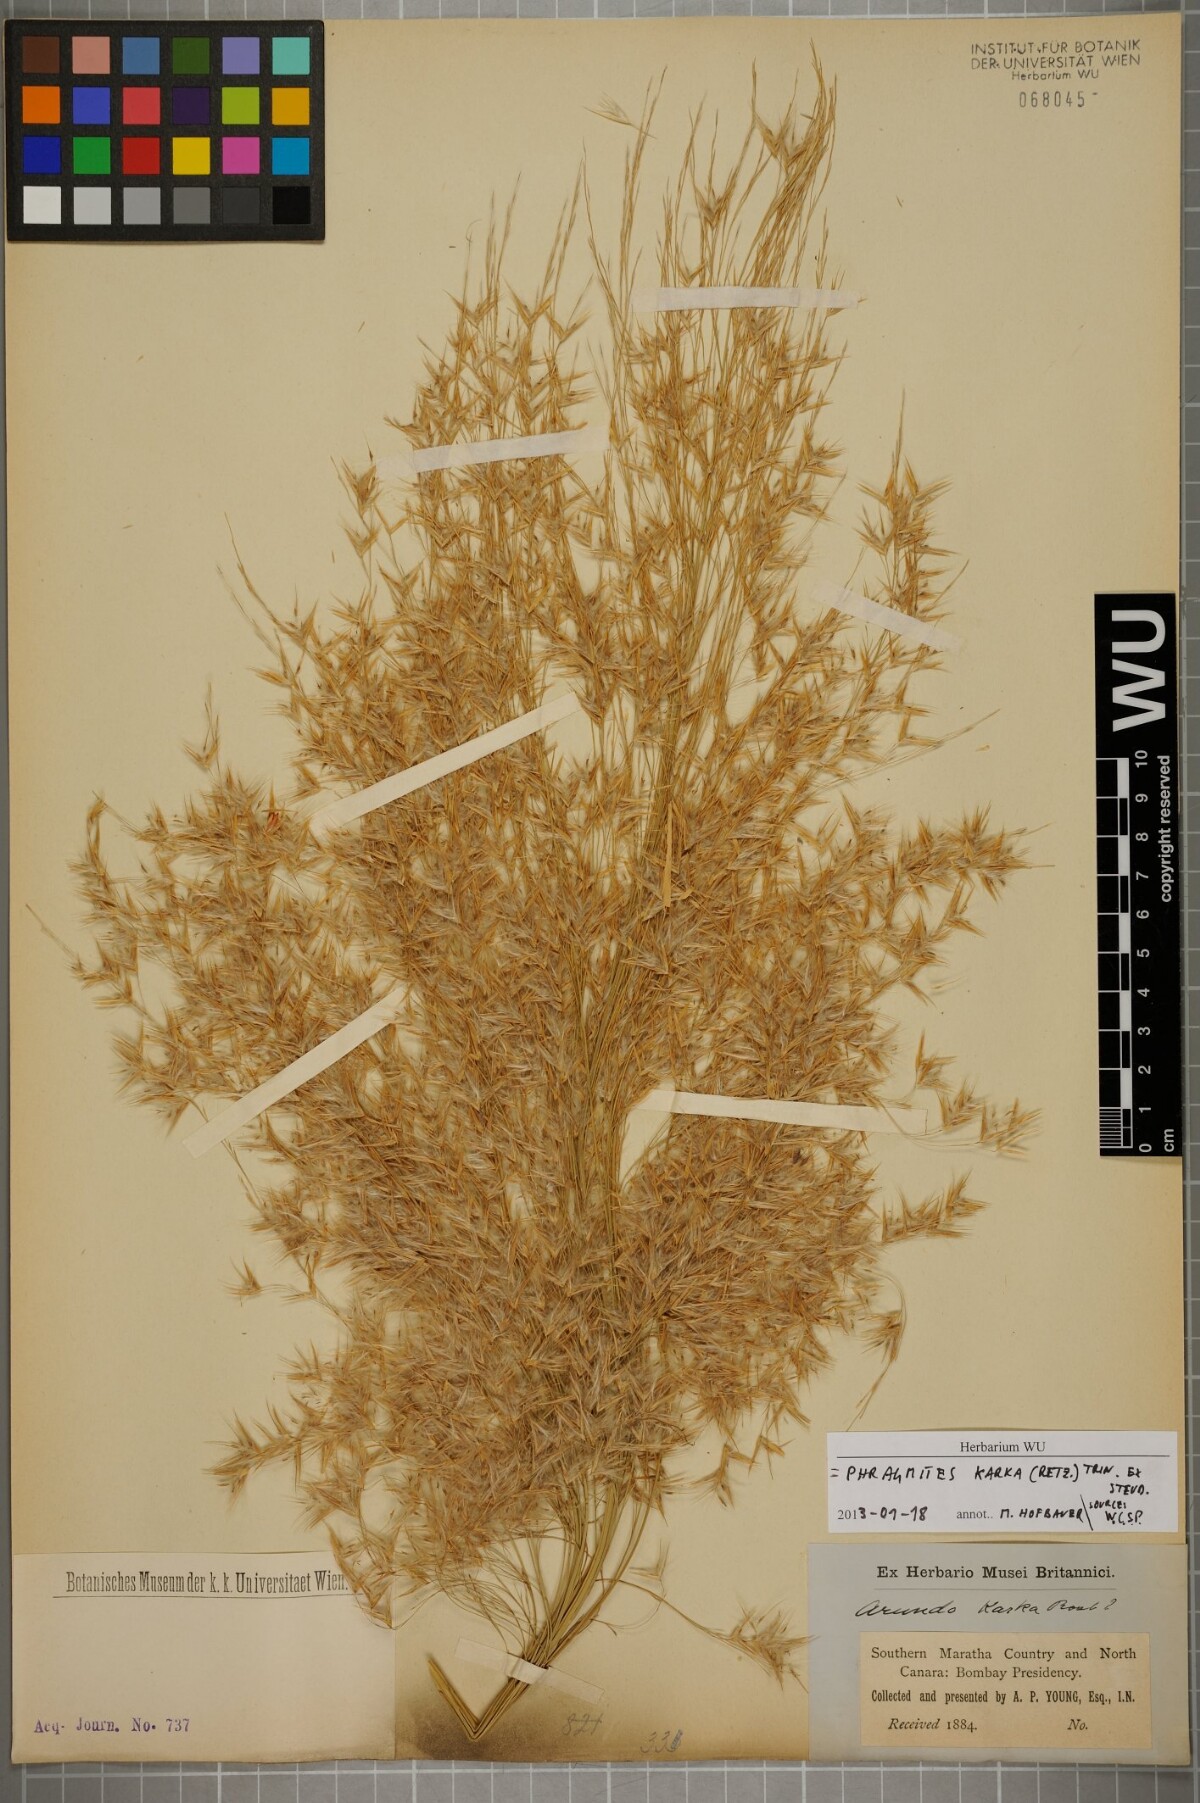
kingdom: Plantae
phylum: Tracheophyta
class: Liliopsida
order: Poales
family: Poaceae
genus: Phragmites
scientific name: Phragmites karka
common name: Tropical reed
